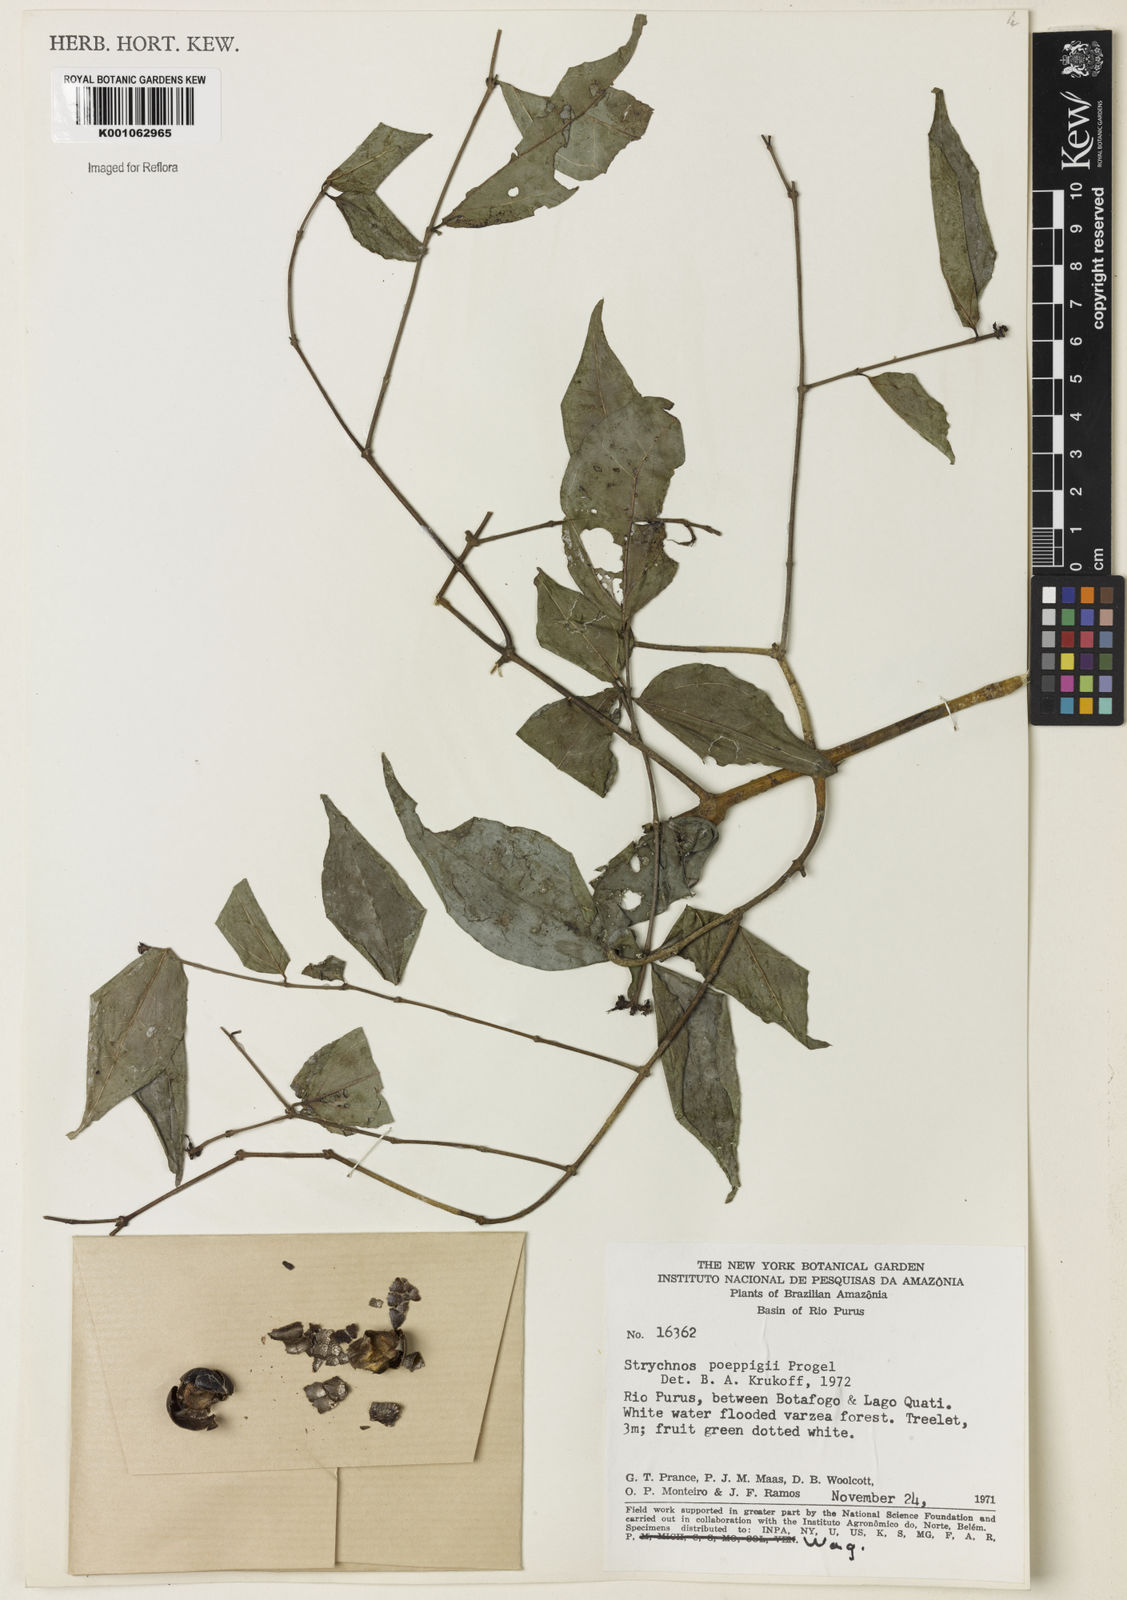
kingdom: Plantae
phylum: Tracheophyta
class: Magnoliopsida
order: Gentianales
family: Loganiaceae
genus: Strychnos
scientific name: Strychnos poeppigii
